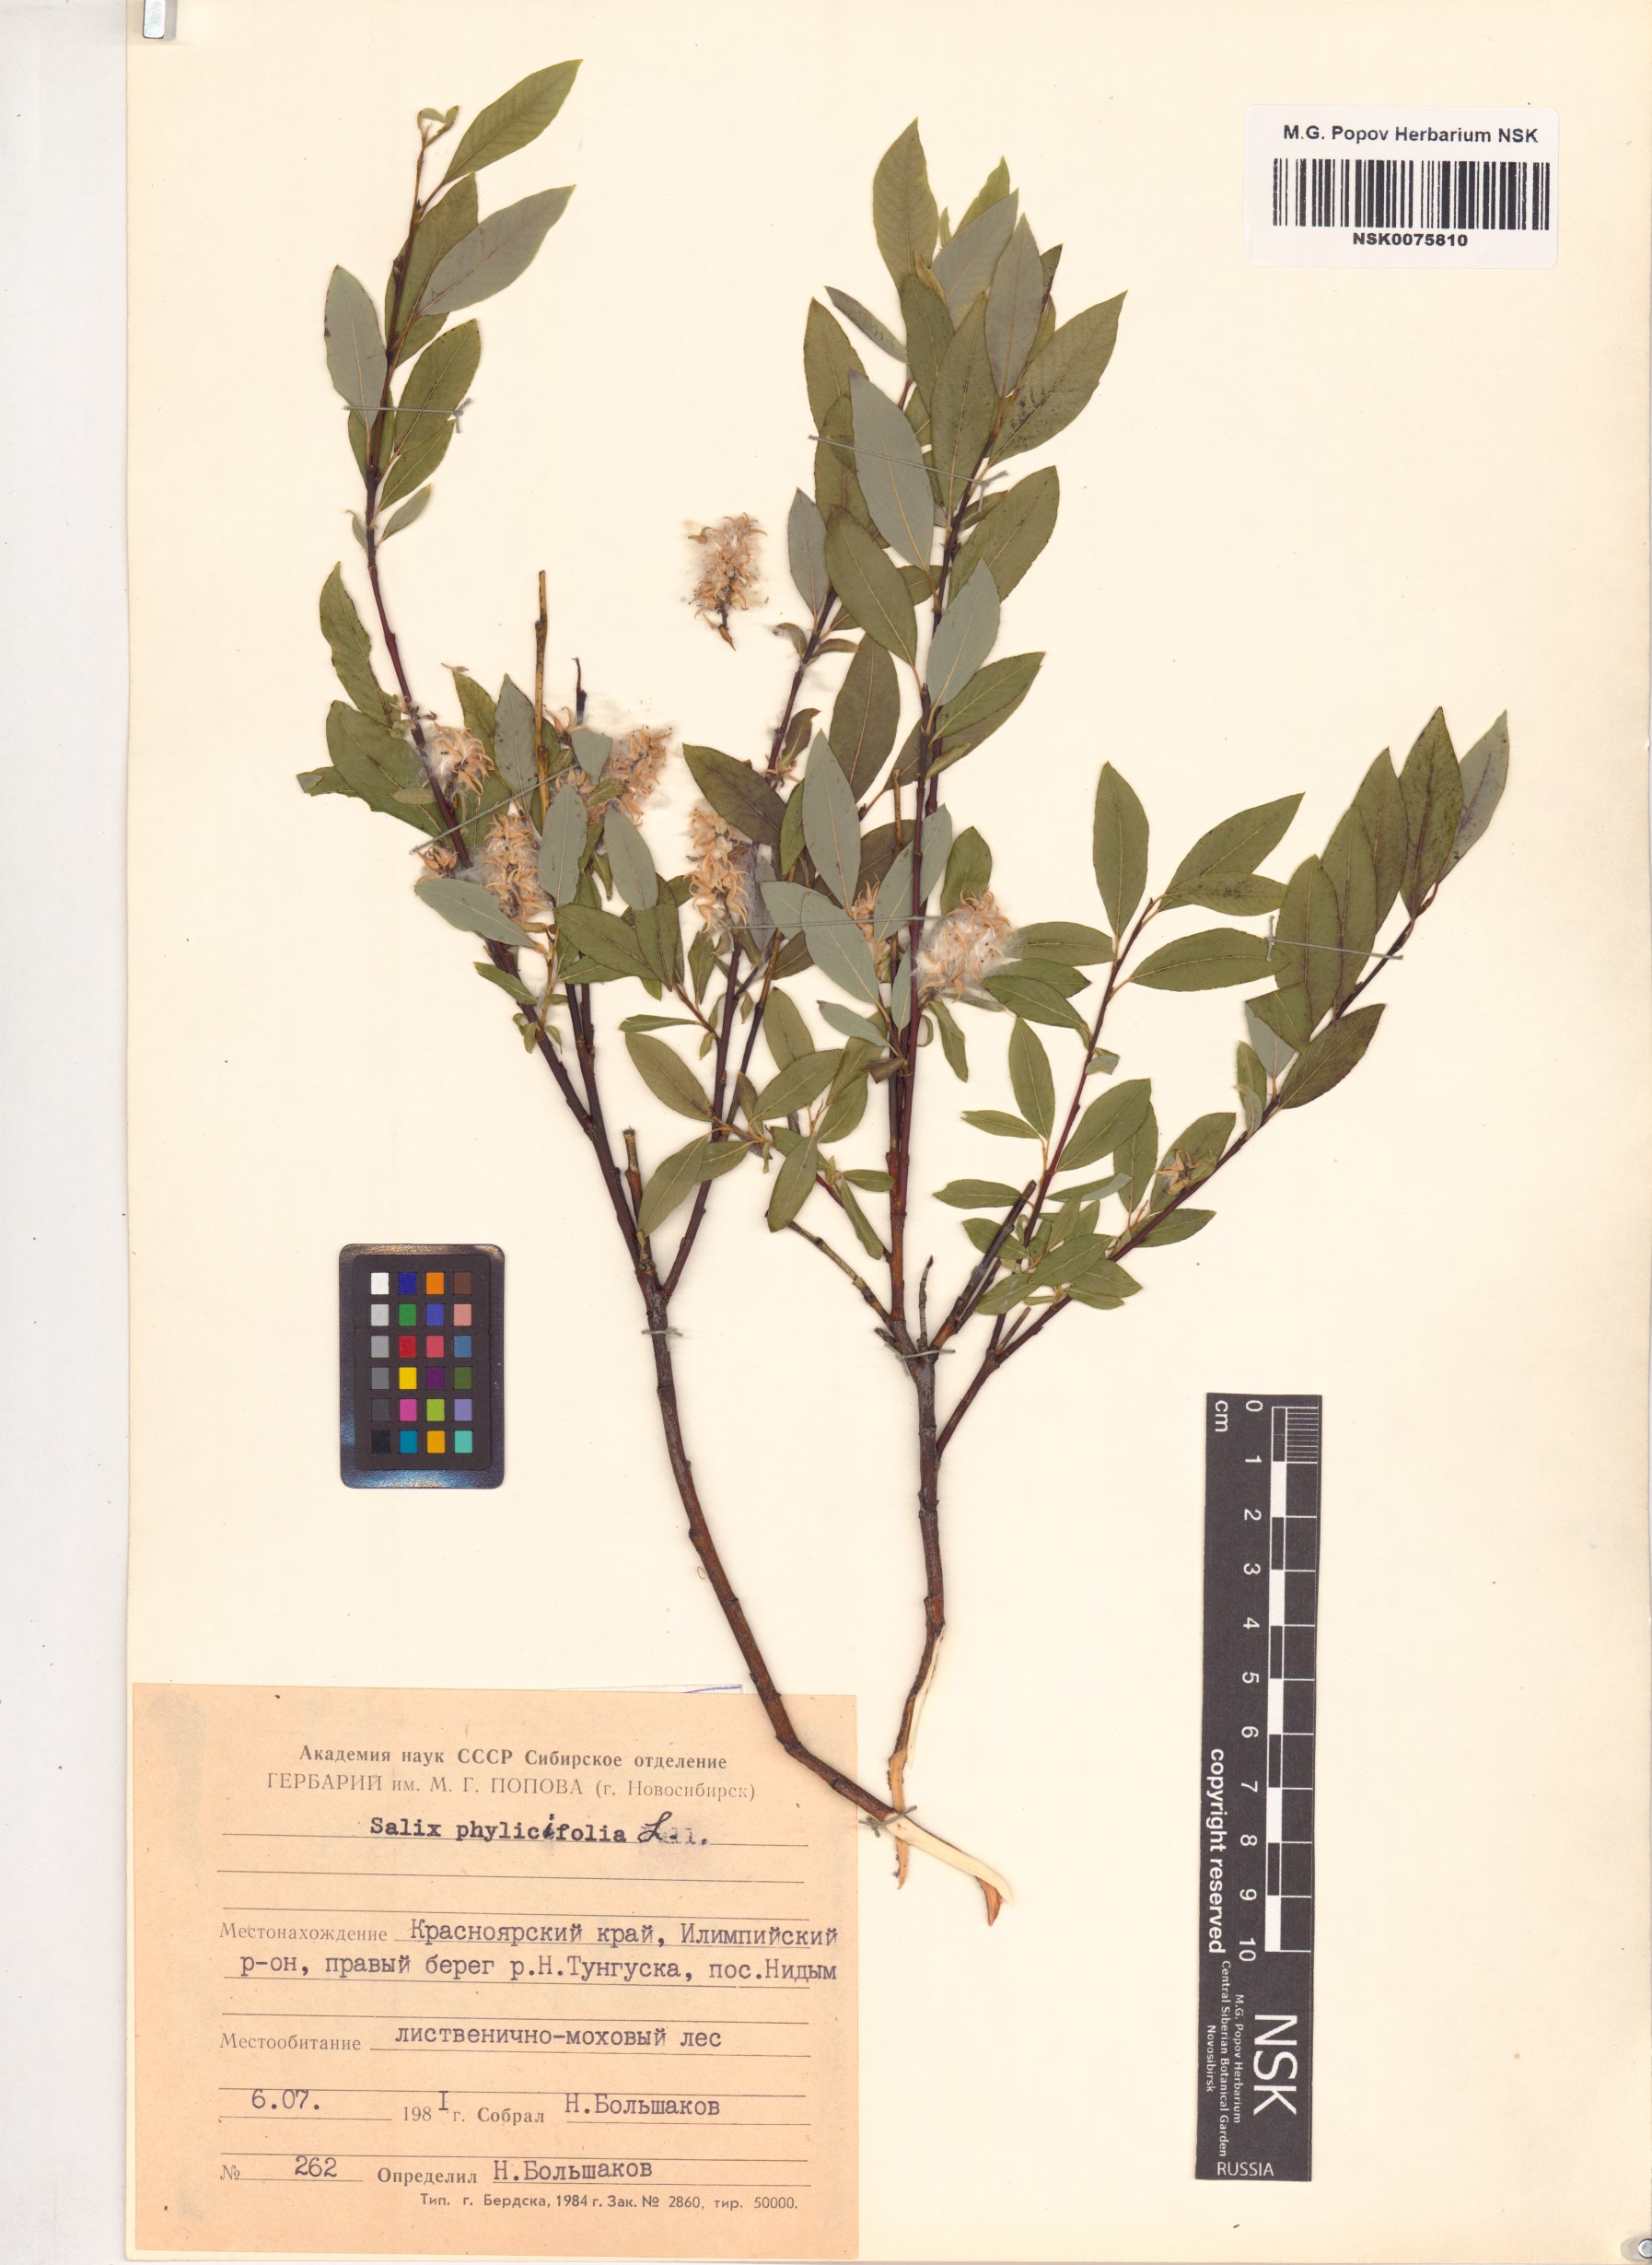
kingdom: Plantae
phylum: Tracheophyta
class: Magnoliopsida
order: Malpighiales
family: Salicaceae
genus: Salix
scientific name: Salix phylicifolia
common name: Tea-leaved willow
